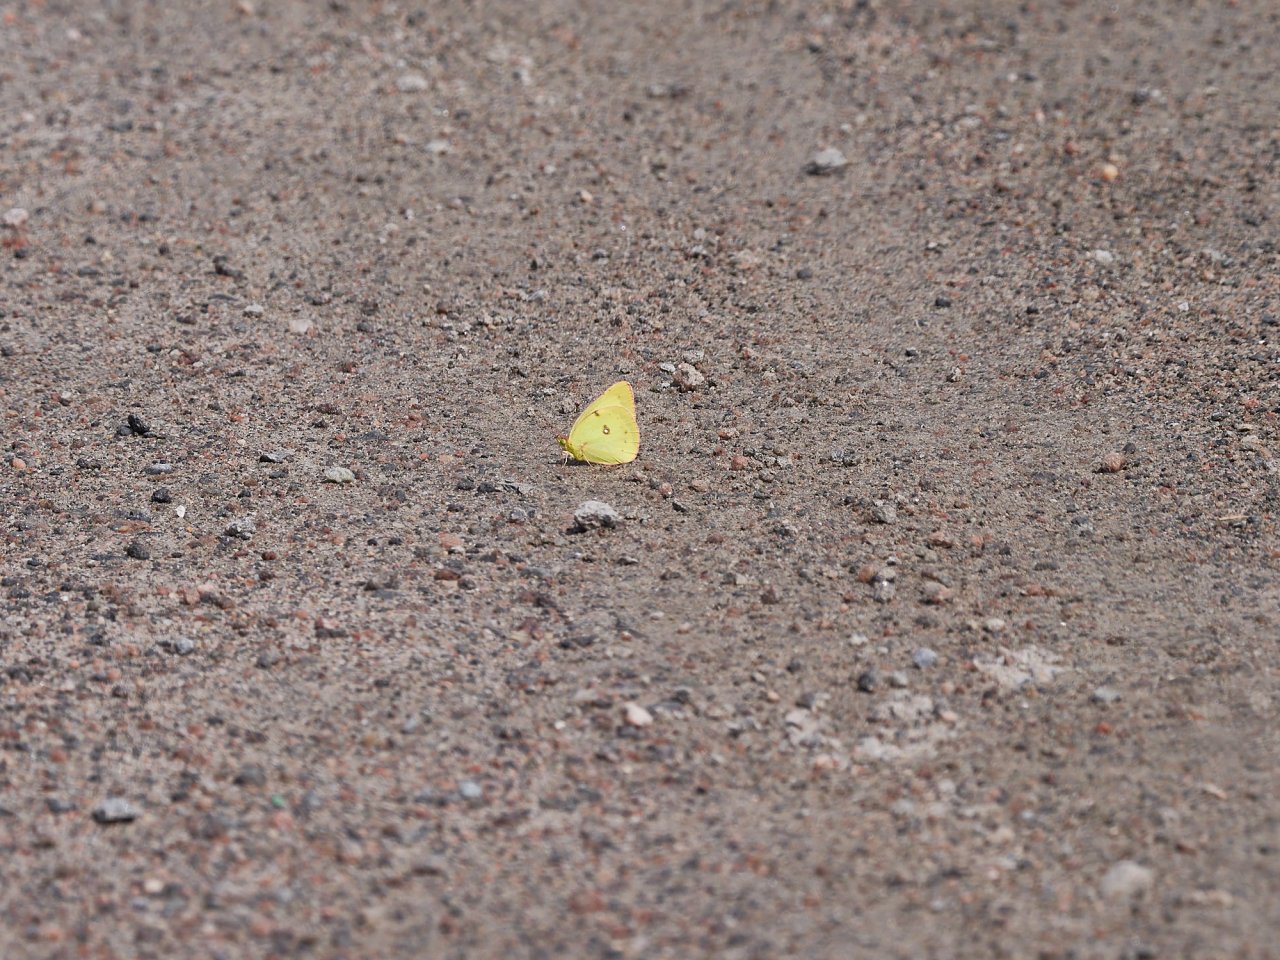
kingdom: Animalia
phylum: Arthropoda
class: Insecta
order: Lepidoptera
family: Pieridae
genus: Colias
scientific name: Colias philodice
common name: Clouded Sulphur
